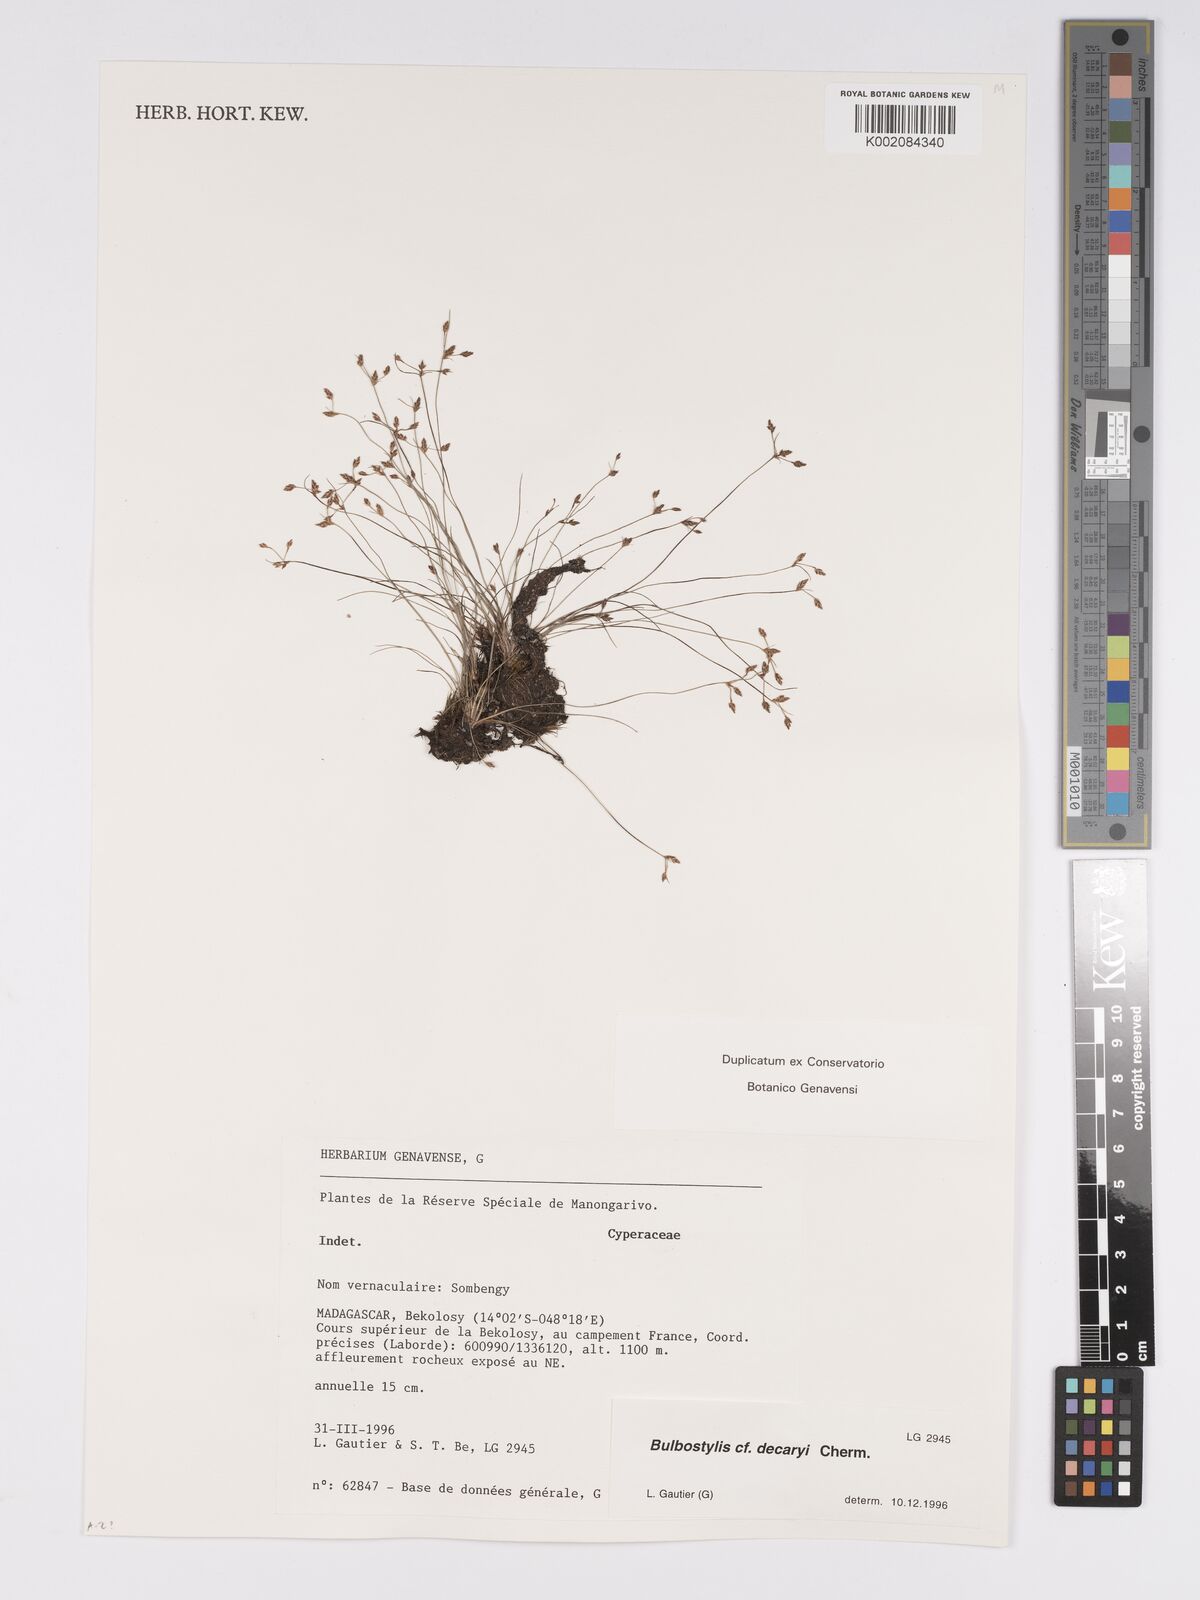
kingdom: Plantae
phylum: Tracheophyta
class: Liliopsida
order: Poales
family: Cyperaceae
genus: Bulbostylis
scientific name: Bulbostylis decaryi
